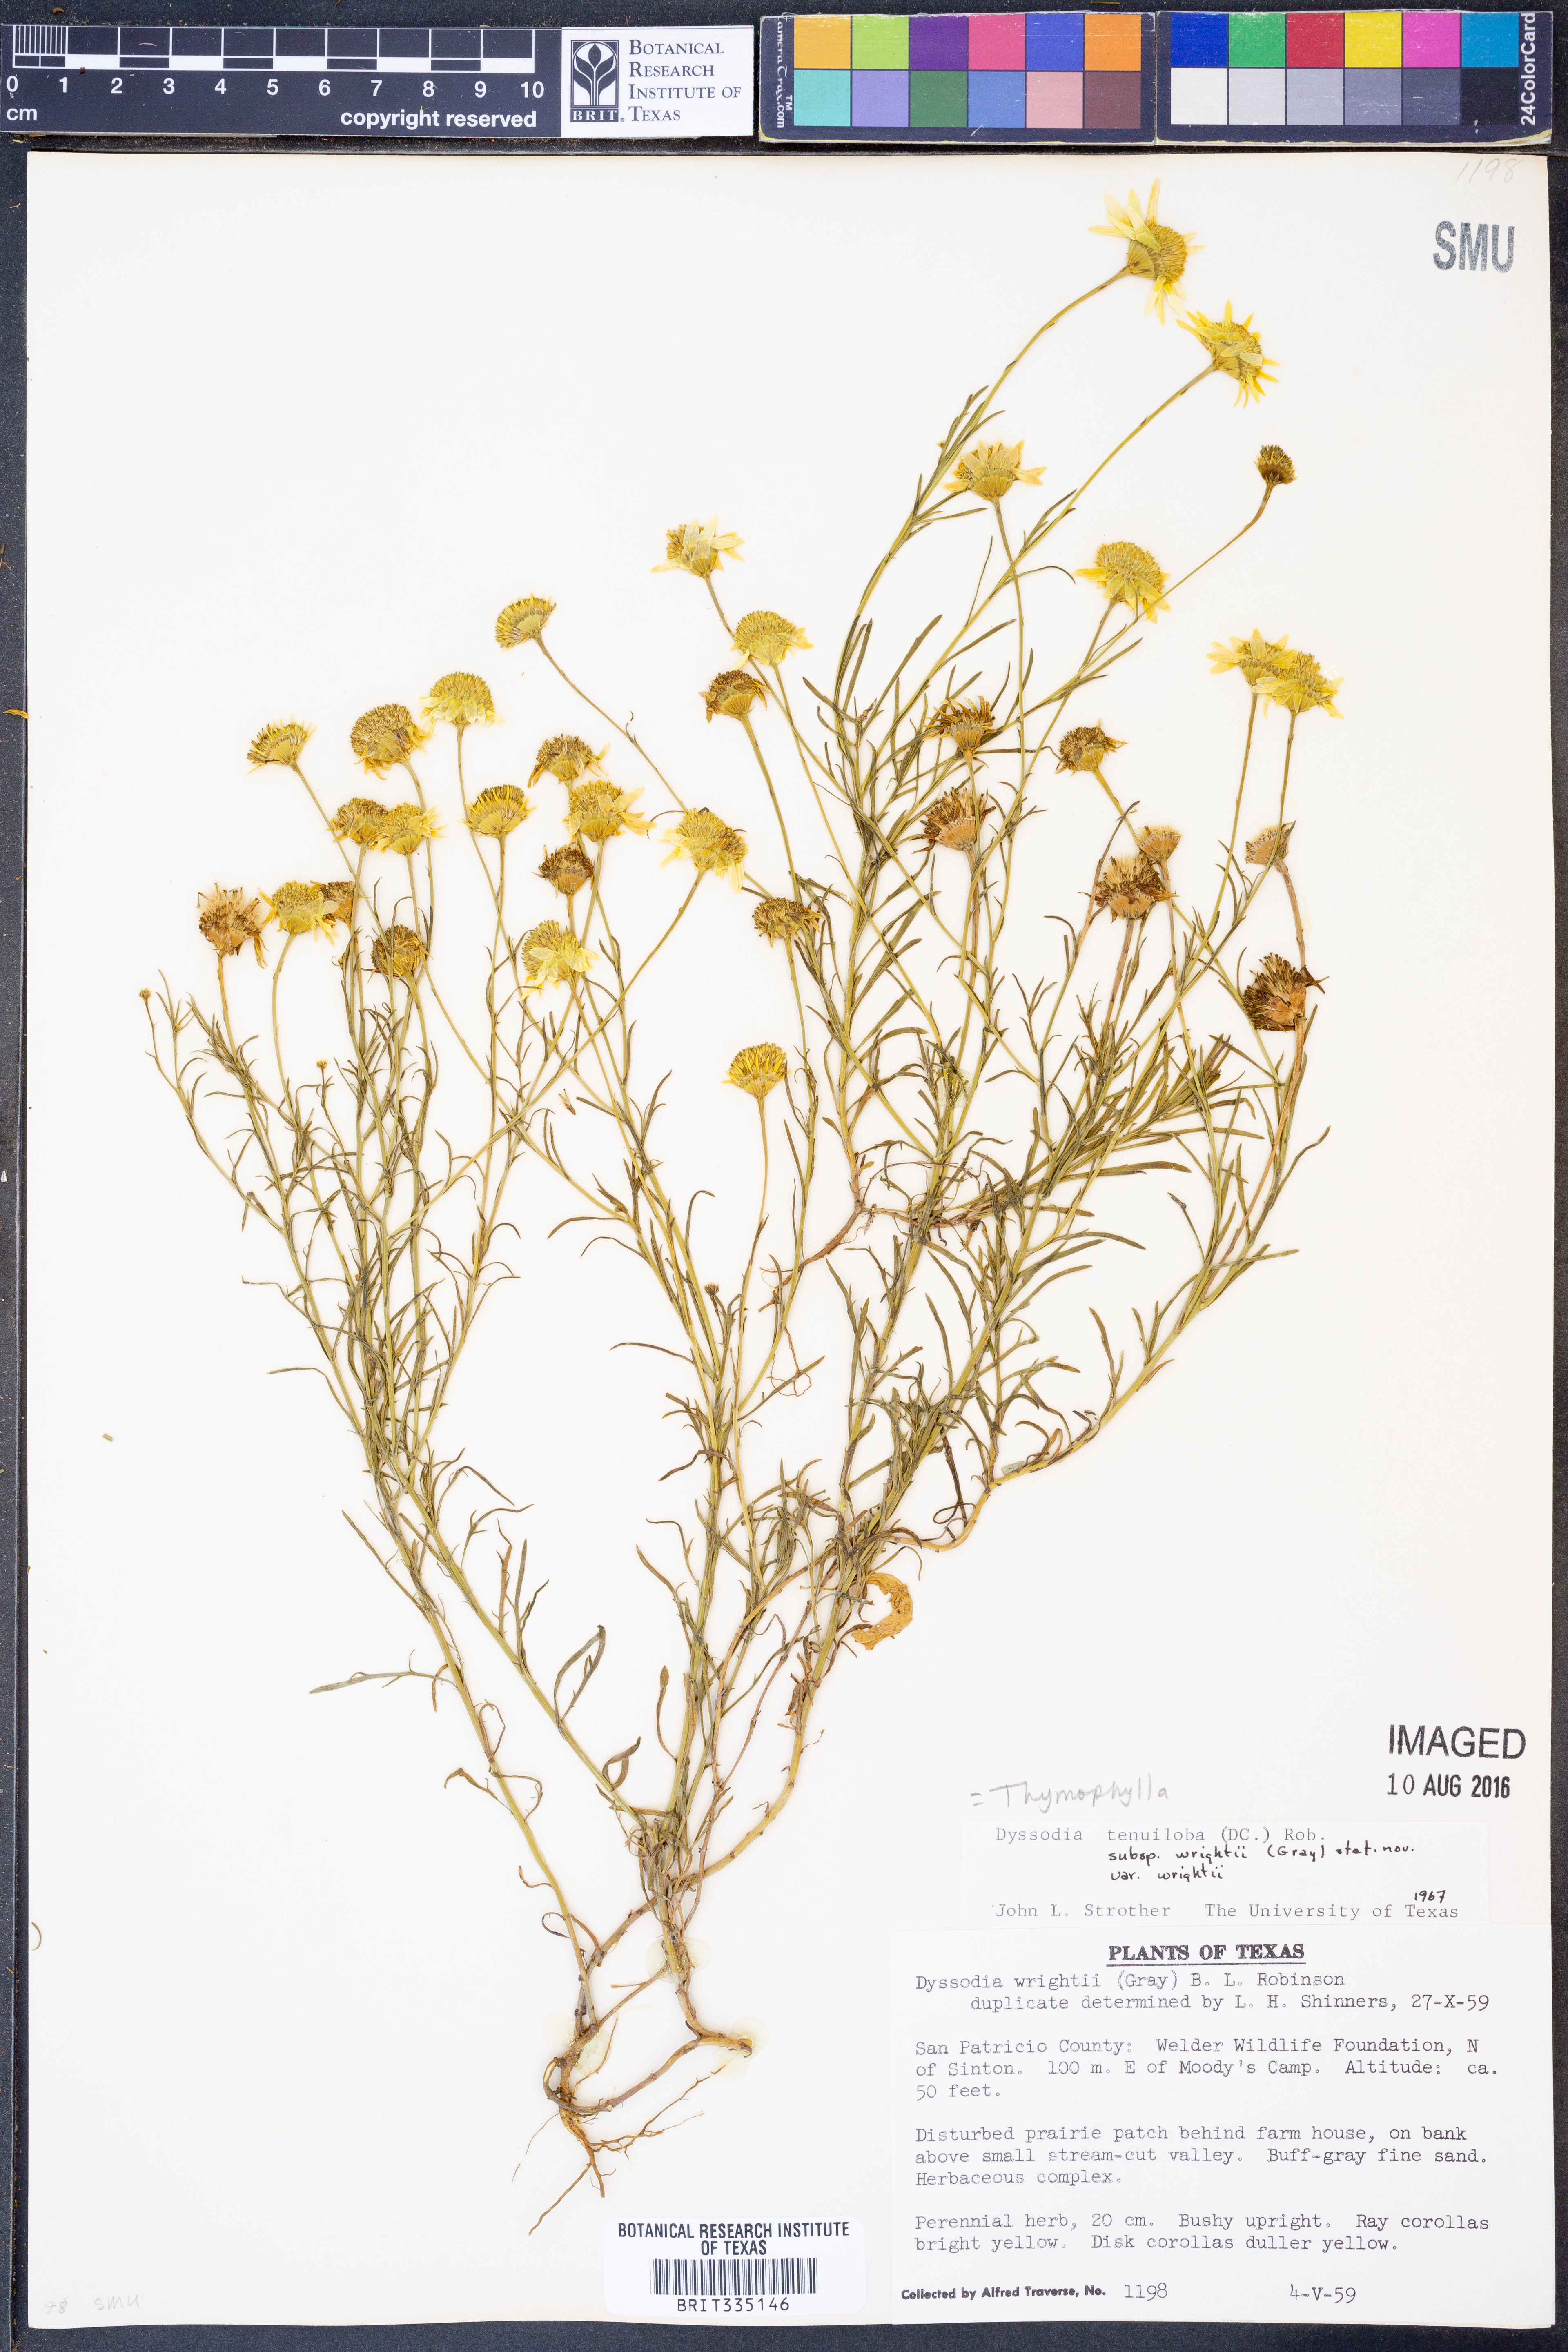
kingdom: Plantae
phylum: Tracheophyta
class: Magnoliopsida
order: Asterales
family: Asteraceae
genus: Thymophylla
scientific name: Thymophylla tenuiloba
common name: Dahlberg's daisy
